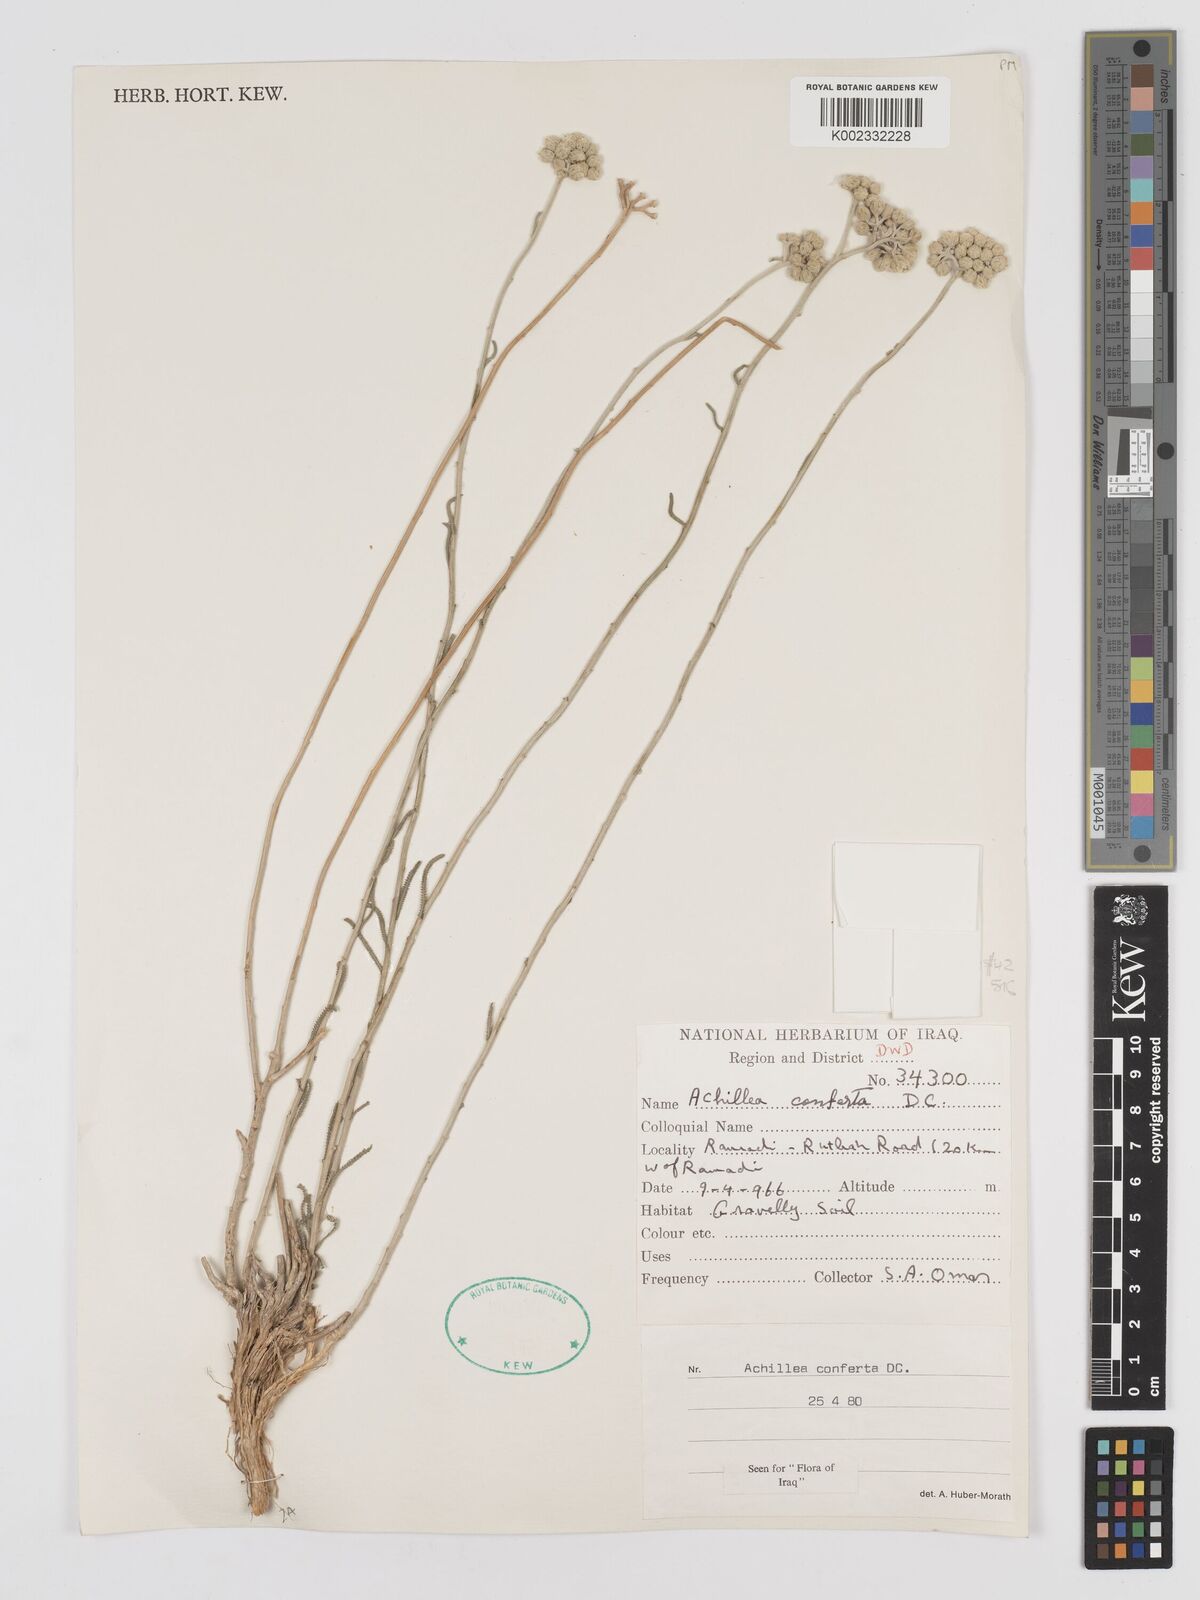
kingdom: Plantae
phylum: Tracheophyta
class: Magnoliopsida
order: Asterales
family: Asteraceae
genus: Achillea
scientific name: Achillea conferta
